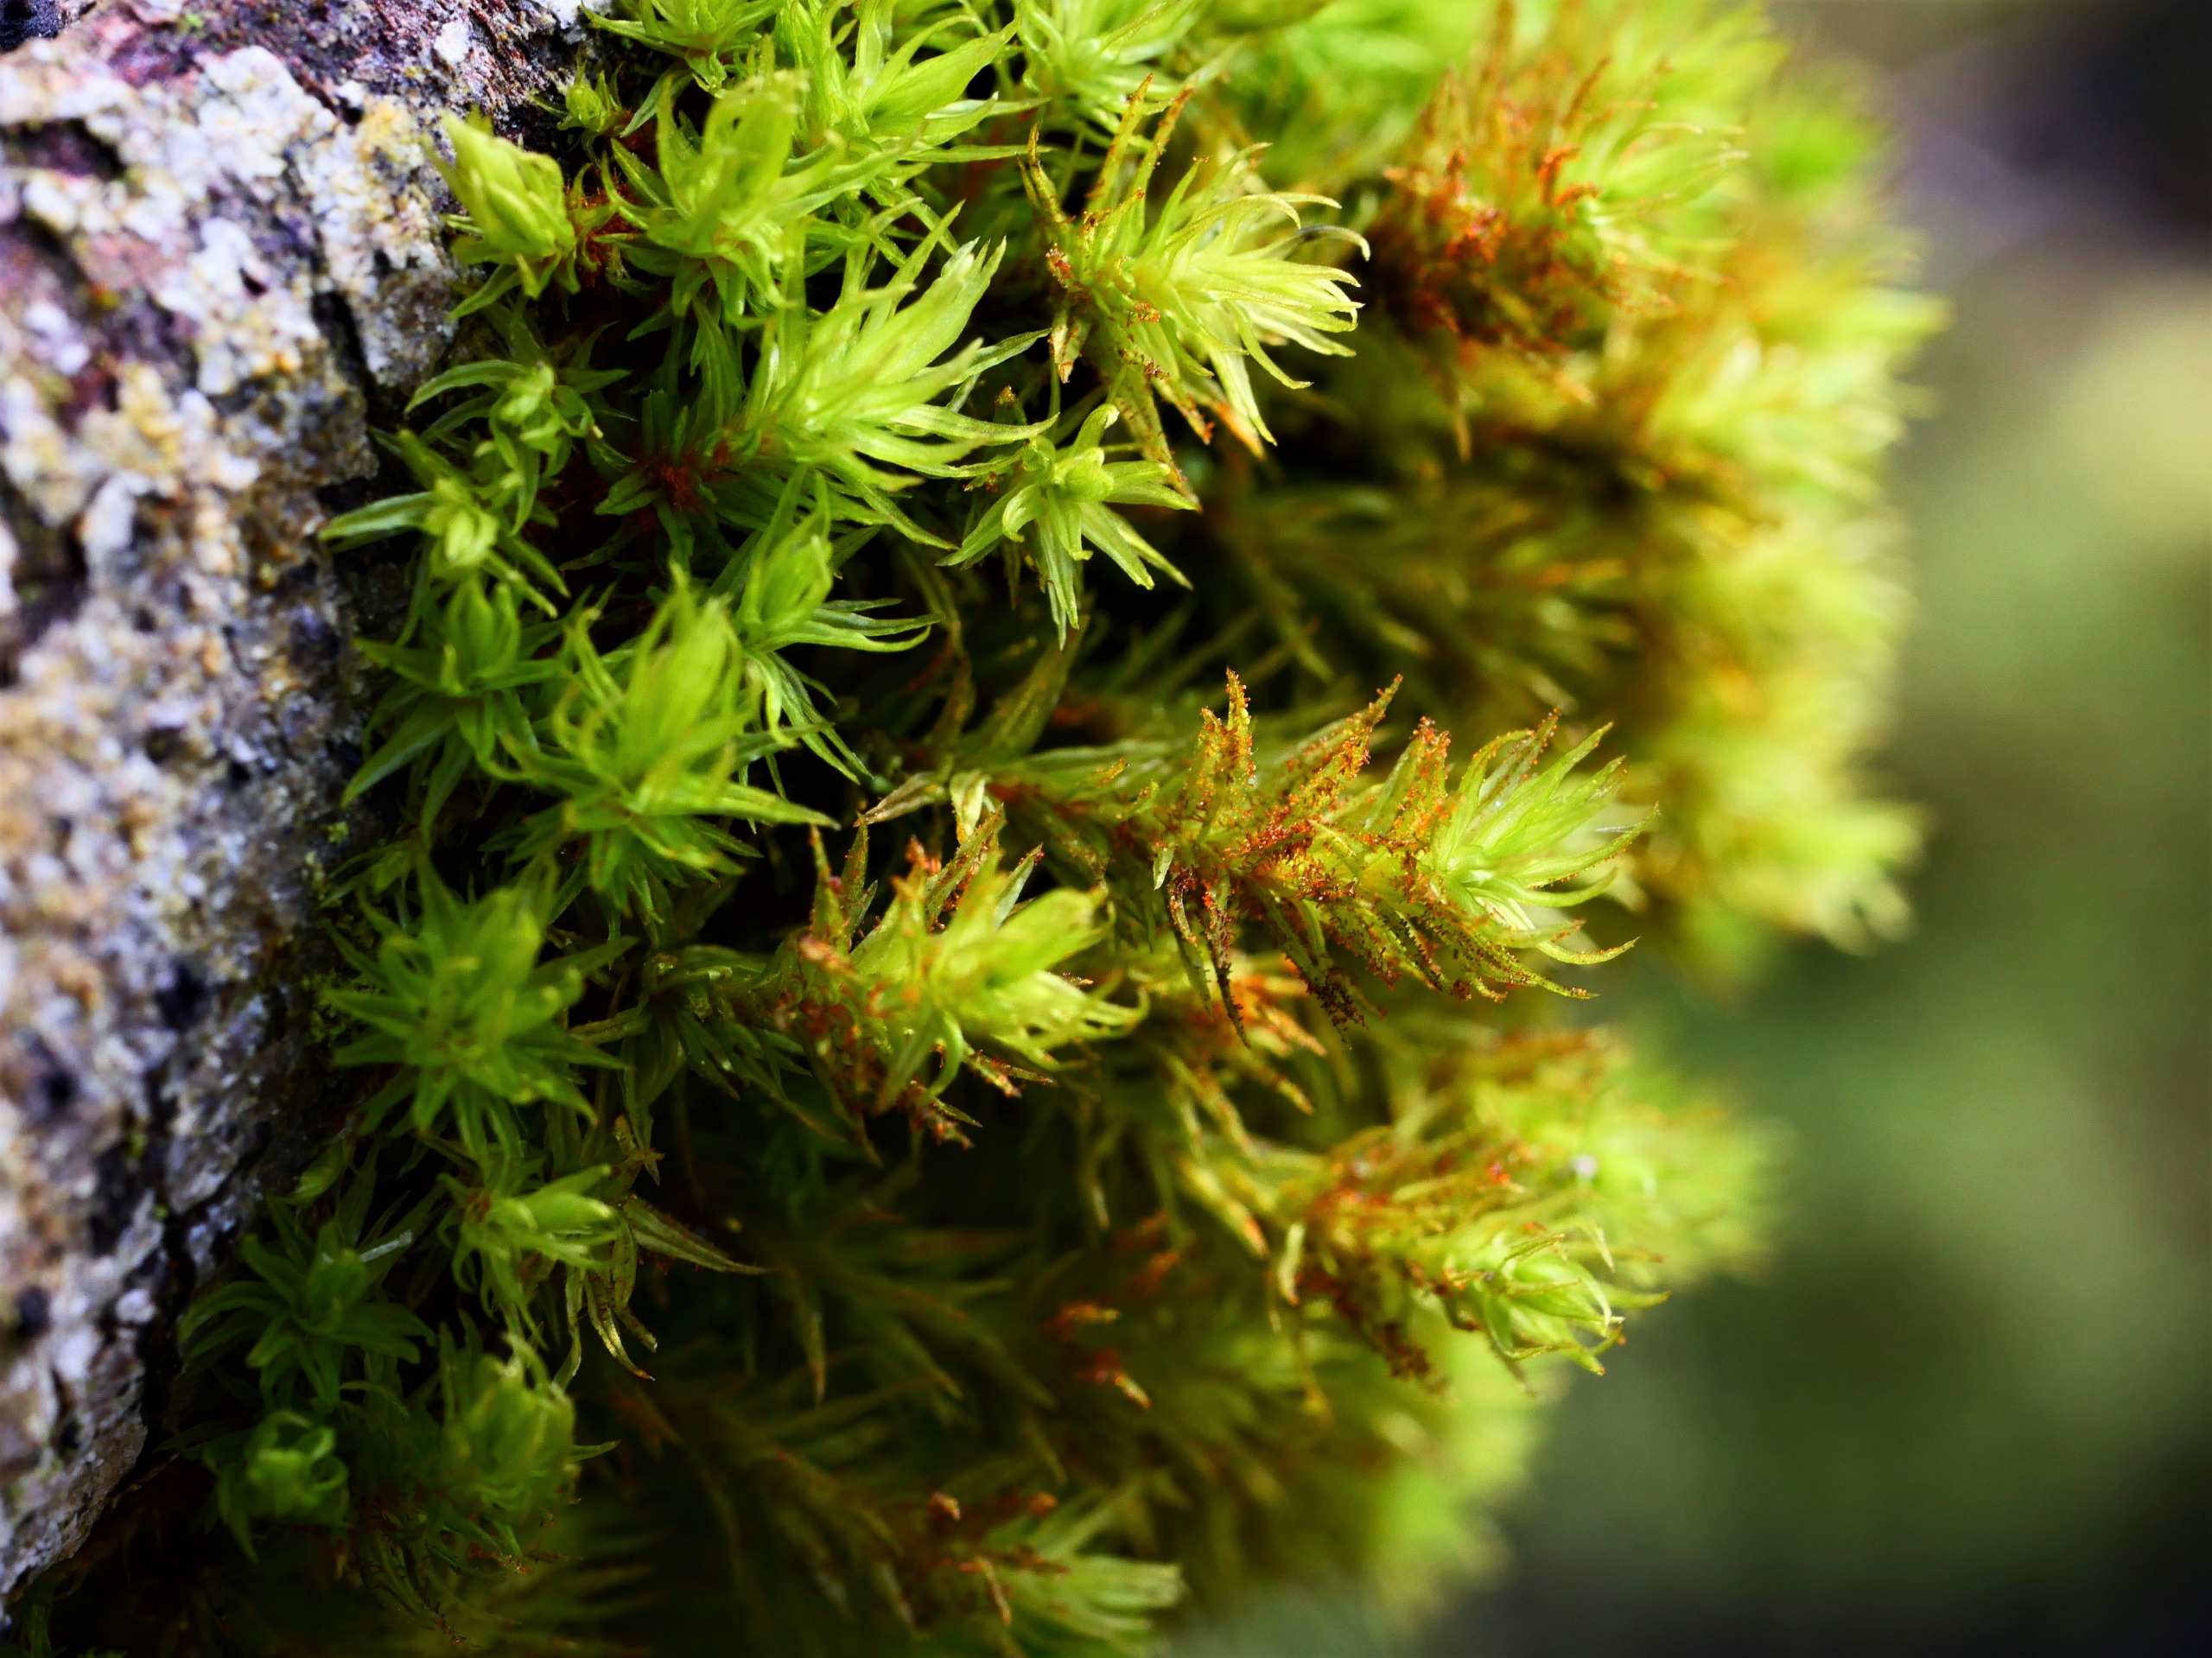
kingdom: Plantae
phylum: Bryophyta
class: Bryopsida
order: Orthotrichales
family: Orthotrichaceae
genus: Pulvigera
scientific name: Pulvigera lyellii
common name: Stor furehætte
